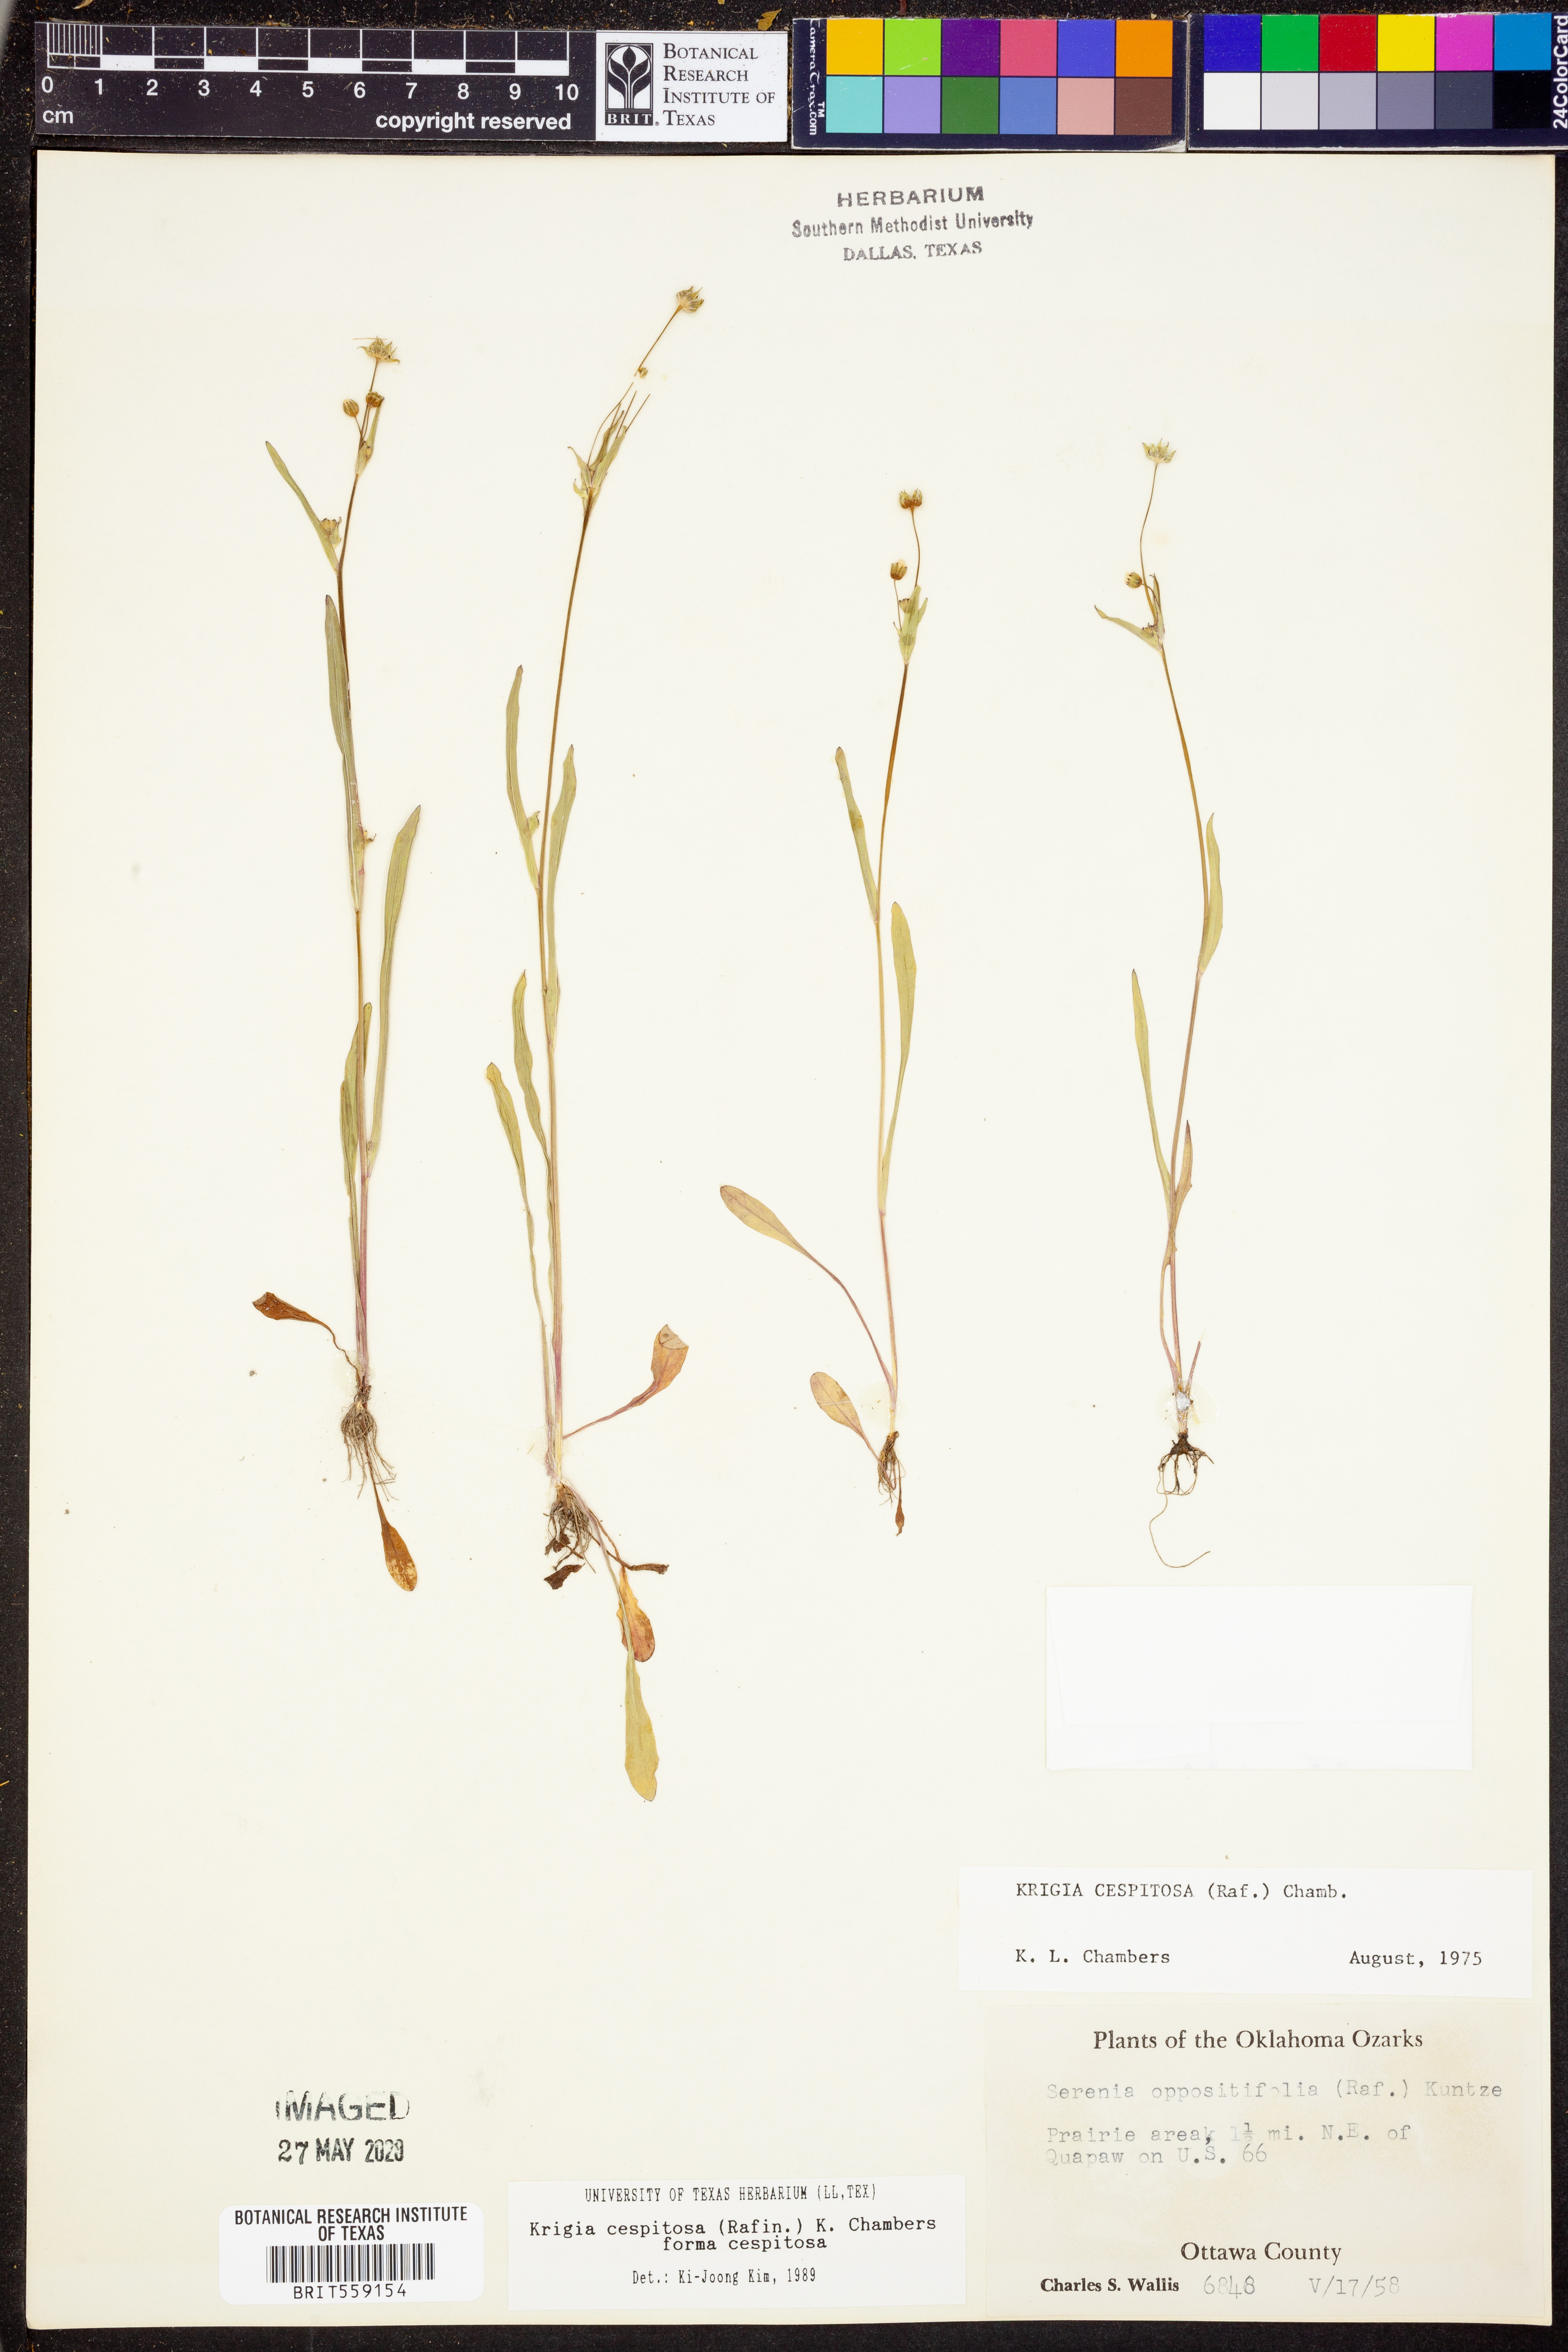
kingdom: Plantae
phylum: Tracheophyta
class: Magnoliopsida
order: Asterales
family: Asteraceae
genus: Krigia
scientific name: Krigia cespitosa
